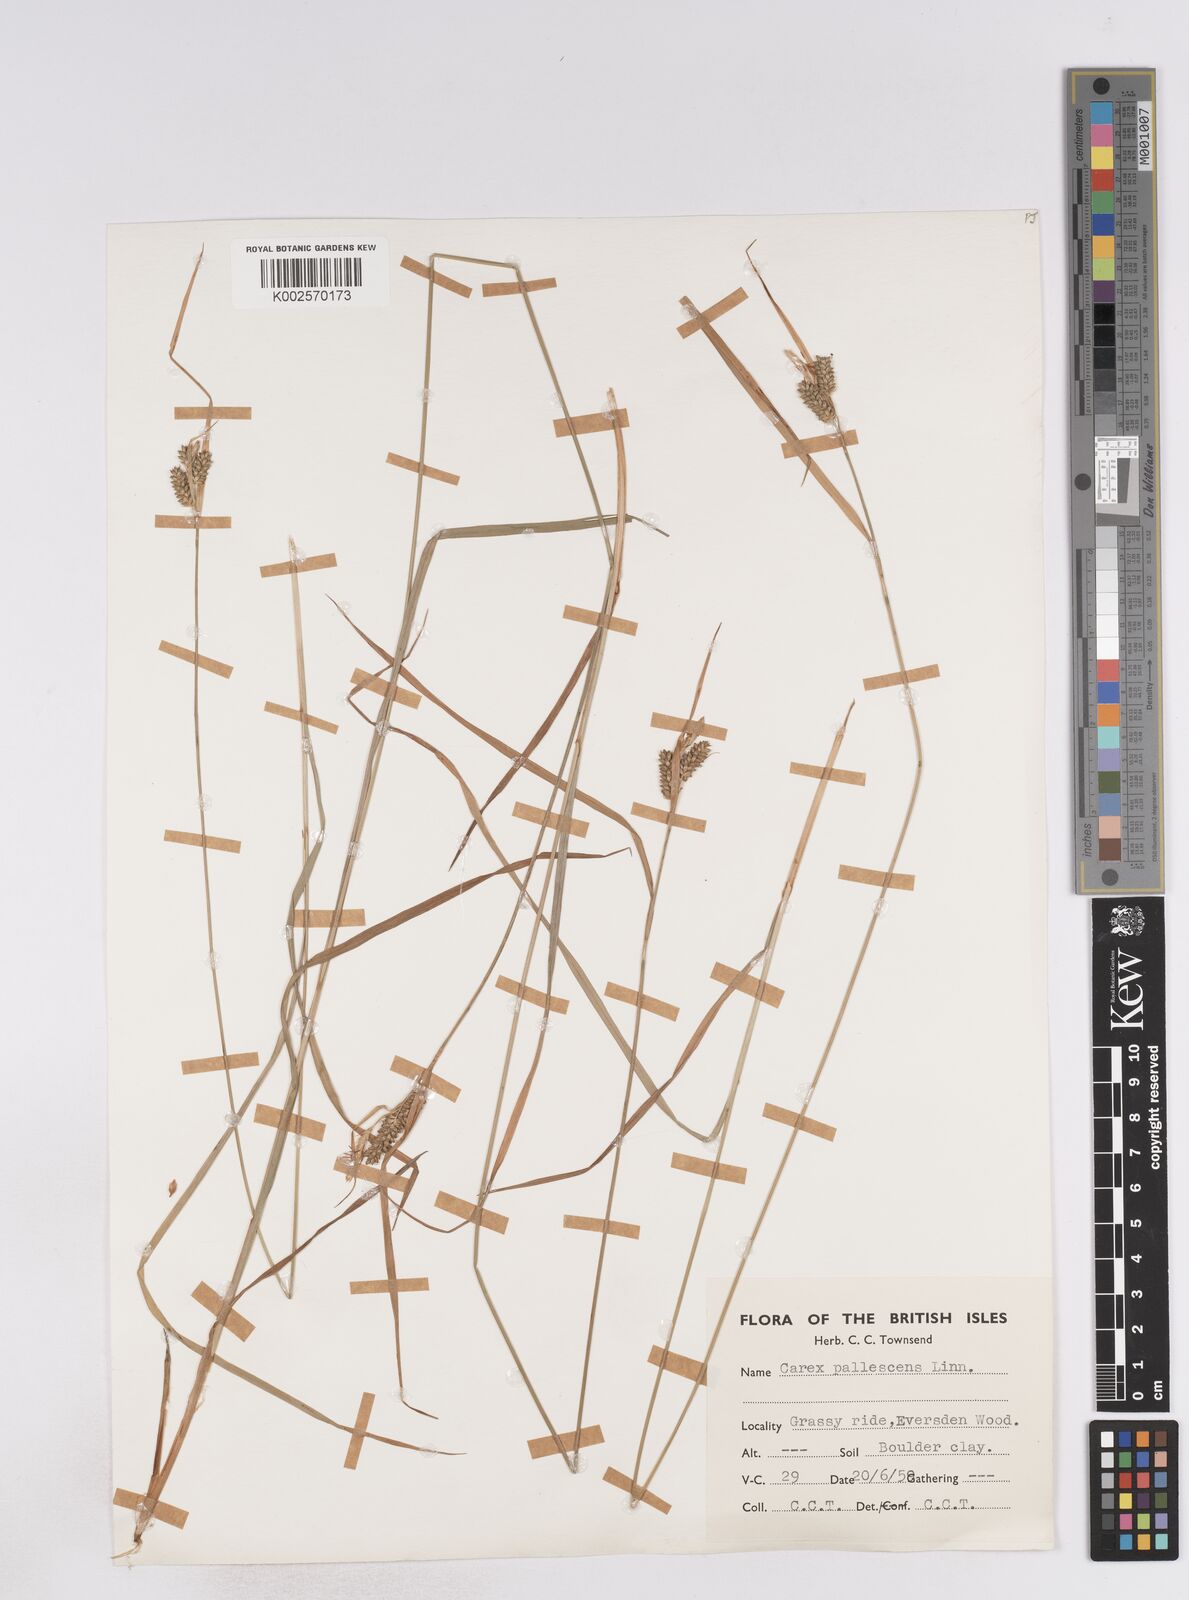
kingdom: Plantae
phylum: Tracheophyta
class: Liliopsida
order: Poales
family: Cyperaceae
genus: Carex
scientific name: Carex pallescens
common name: Pale sedge
